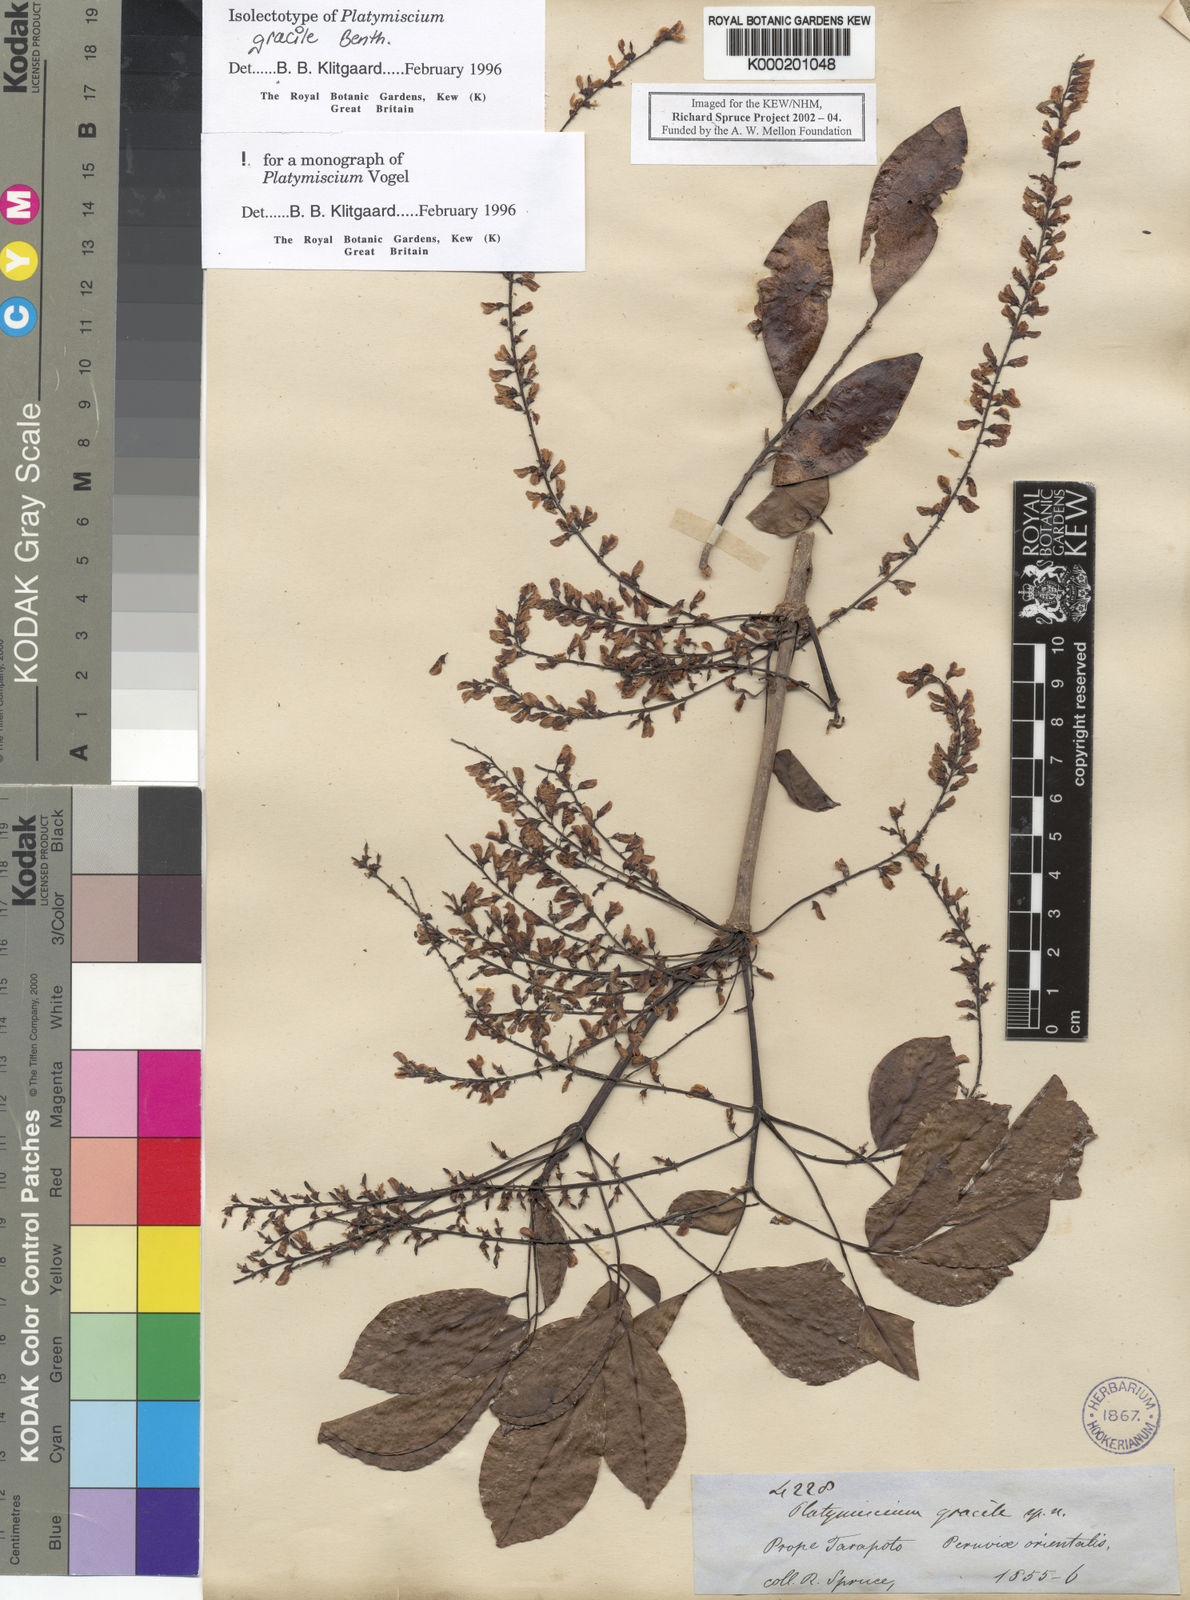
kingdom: Plantae
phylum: Tracheophyta
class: Magnoliopsida
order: Fabales
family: Fabaceae
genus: Platymiscium
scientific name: Platymiscium gracile
